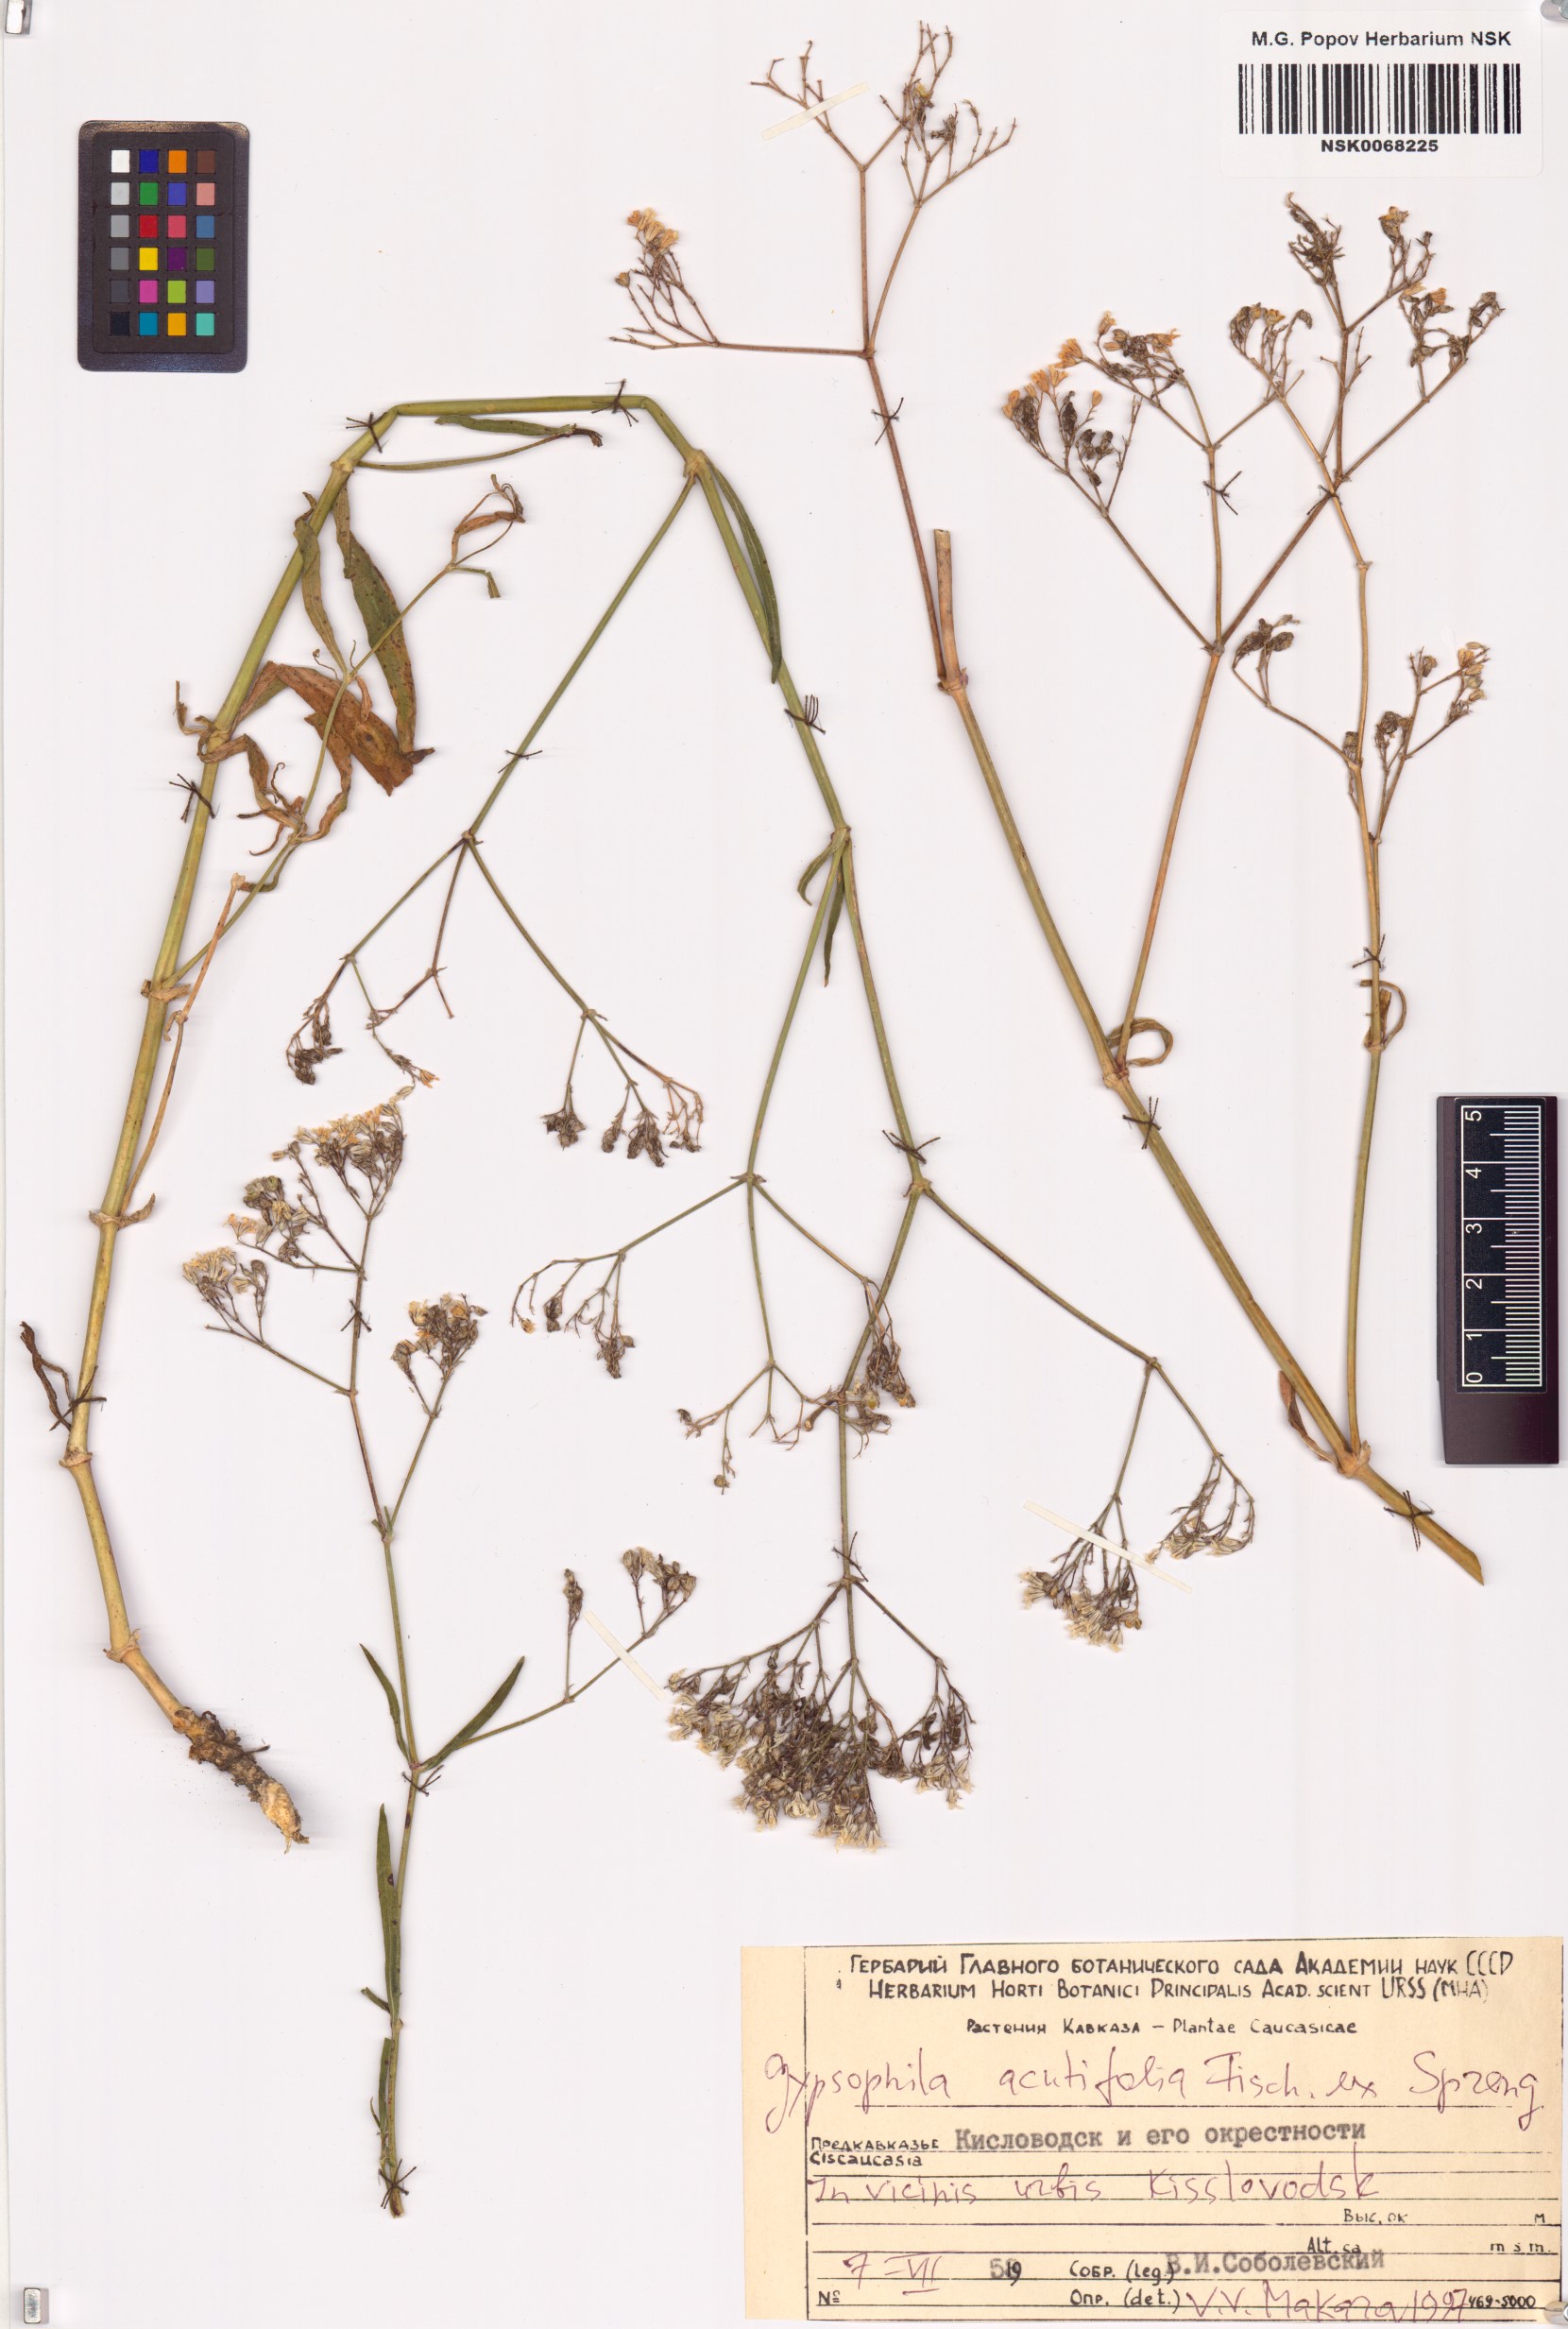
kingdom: Plantae
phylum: Tracheophyta
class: Magnoliopsida
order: Caryophyllales
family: Caryophyllaceae
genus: Gypsophila
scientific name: Gypsophila acutifolia
